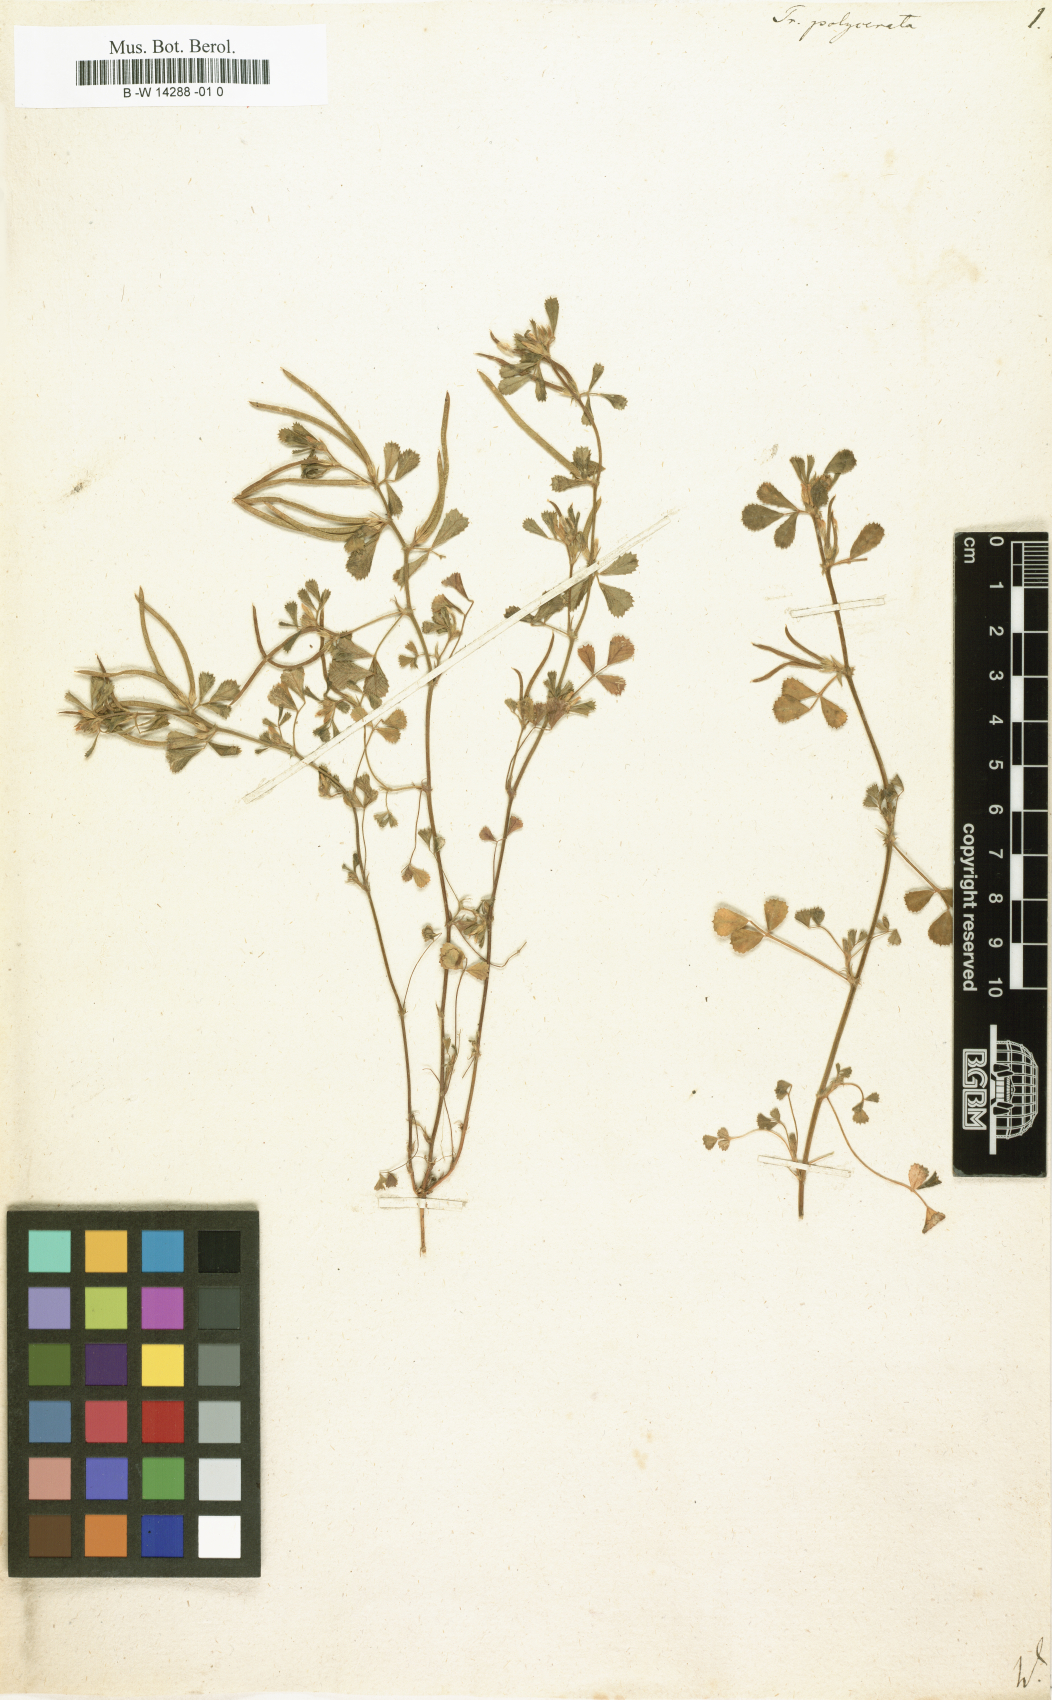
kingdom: Plantae
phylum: Tracheophyta
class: Magnoliopsida
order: Fabales
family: Fabaceae
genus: Medicago
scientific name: Medicago orthoceras
